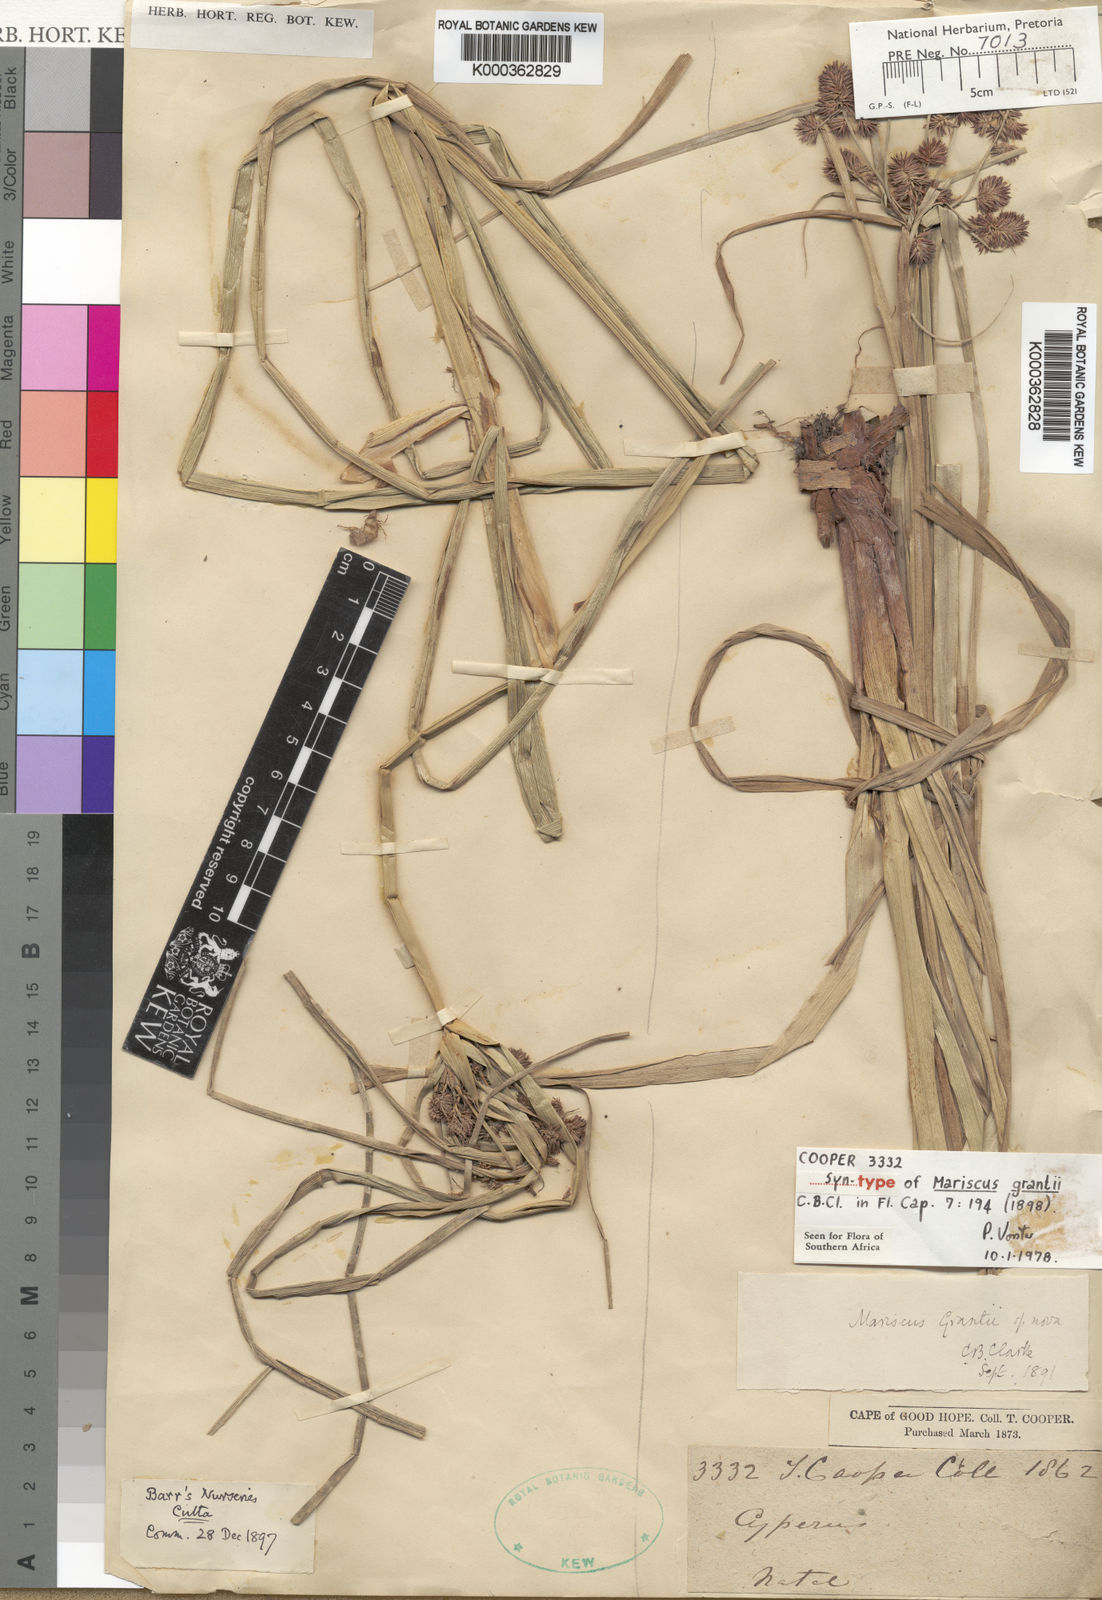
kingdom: Plantae
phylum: Tracheophyta
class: Liliopsida
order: Poales
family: Cyperaceae
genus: Cyperus
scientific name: Cyperus owanii
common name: Owan's flatsedge
